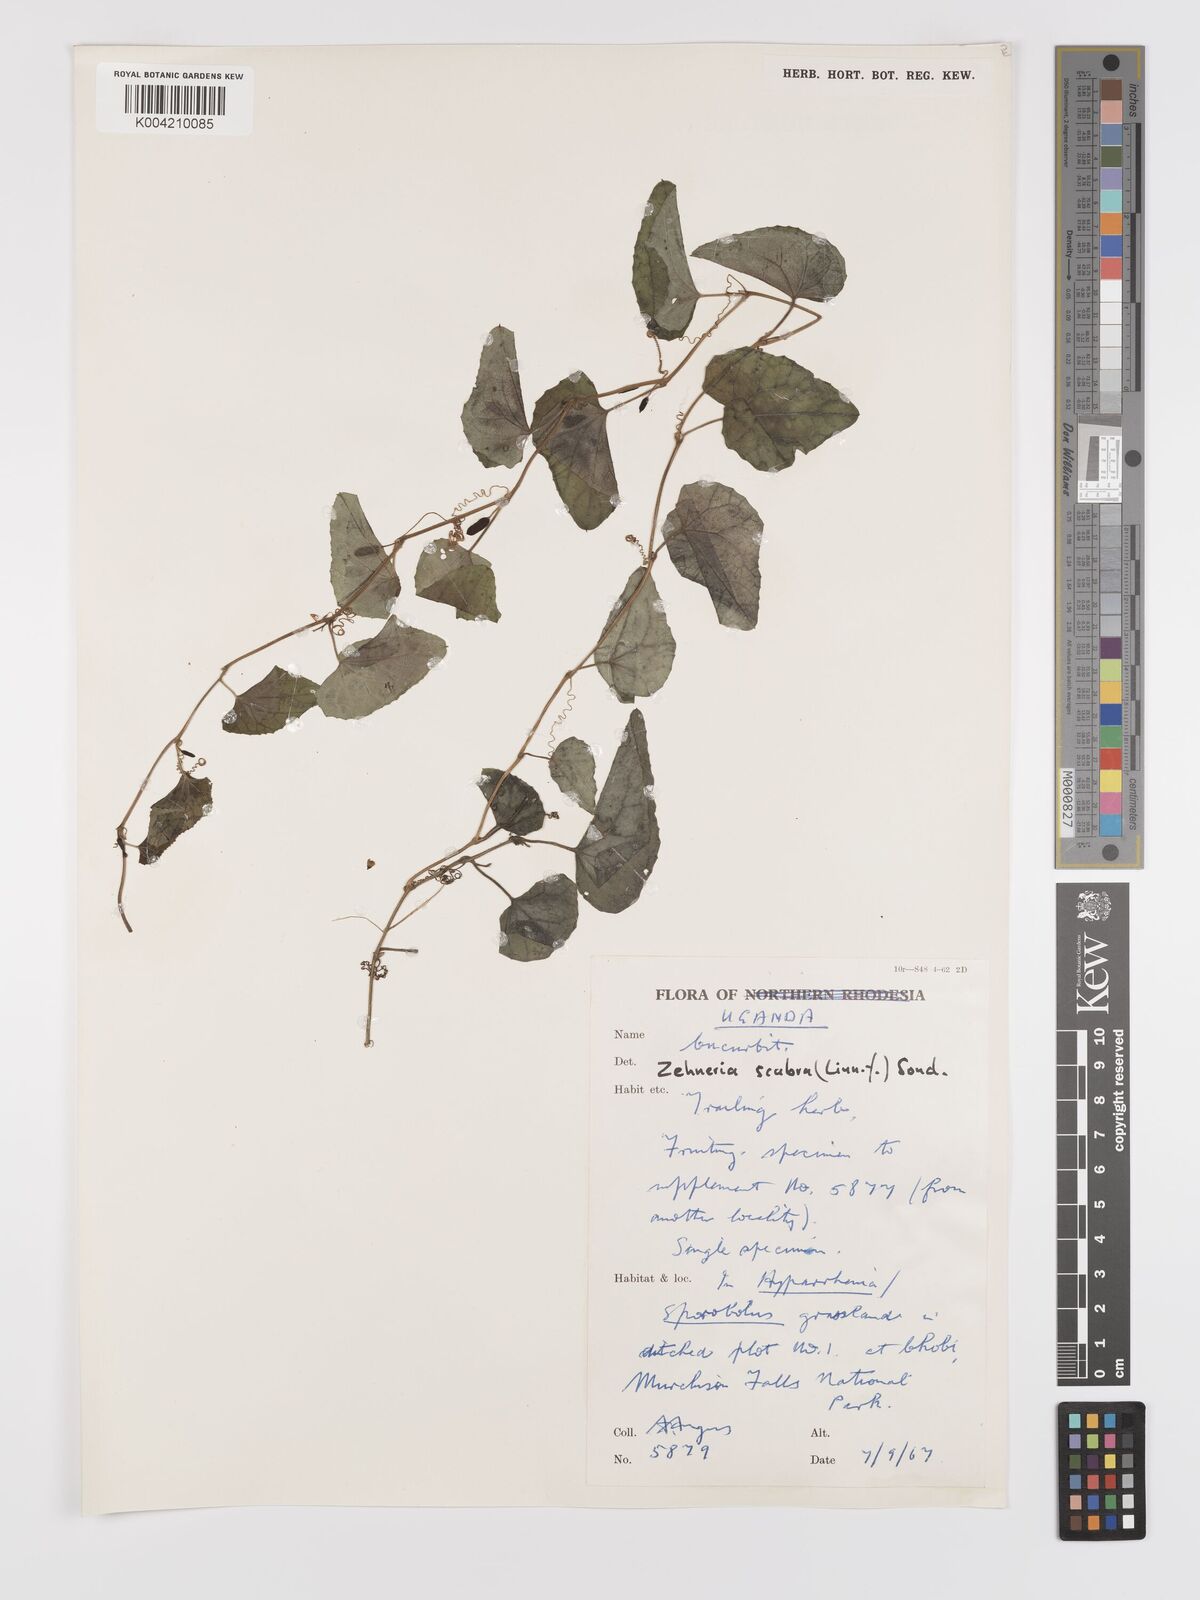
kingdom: Plantae
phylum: Tracheophyta
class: Magnoliopsida
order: Cucurbitales
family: Cucurbitaceae
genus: Zehneria
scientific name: Zehneria scabra
